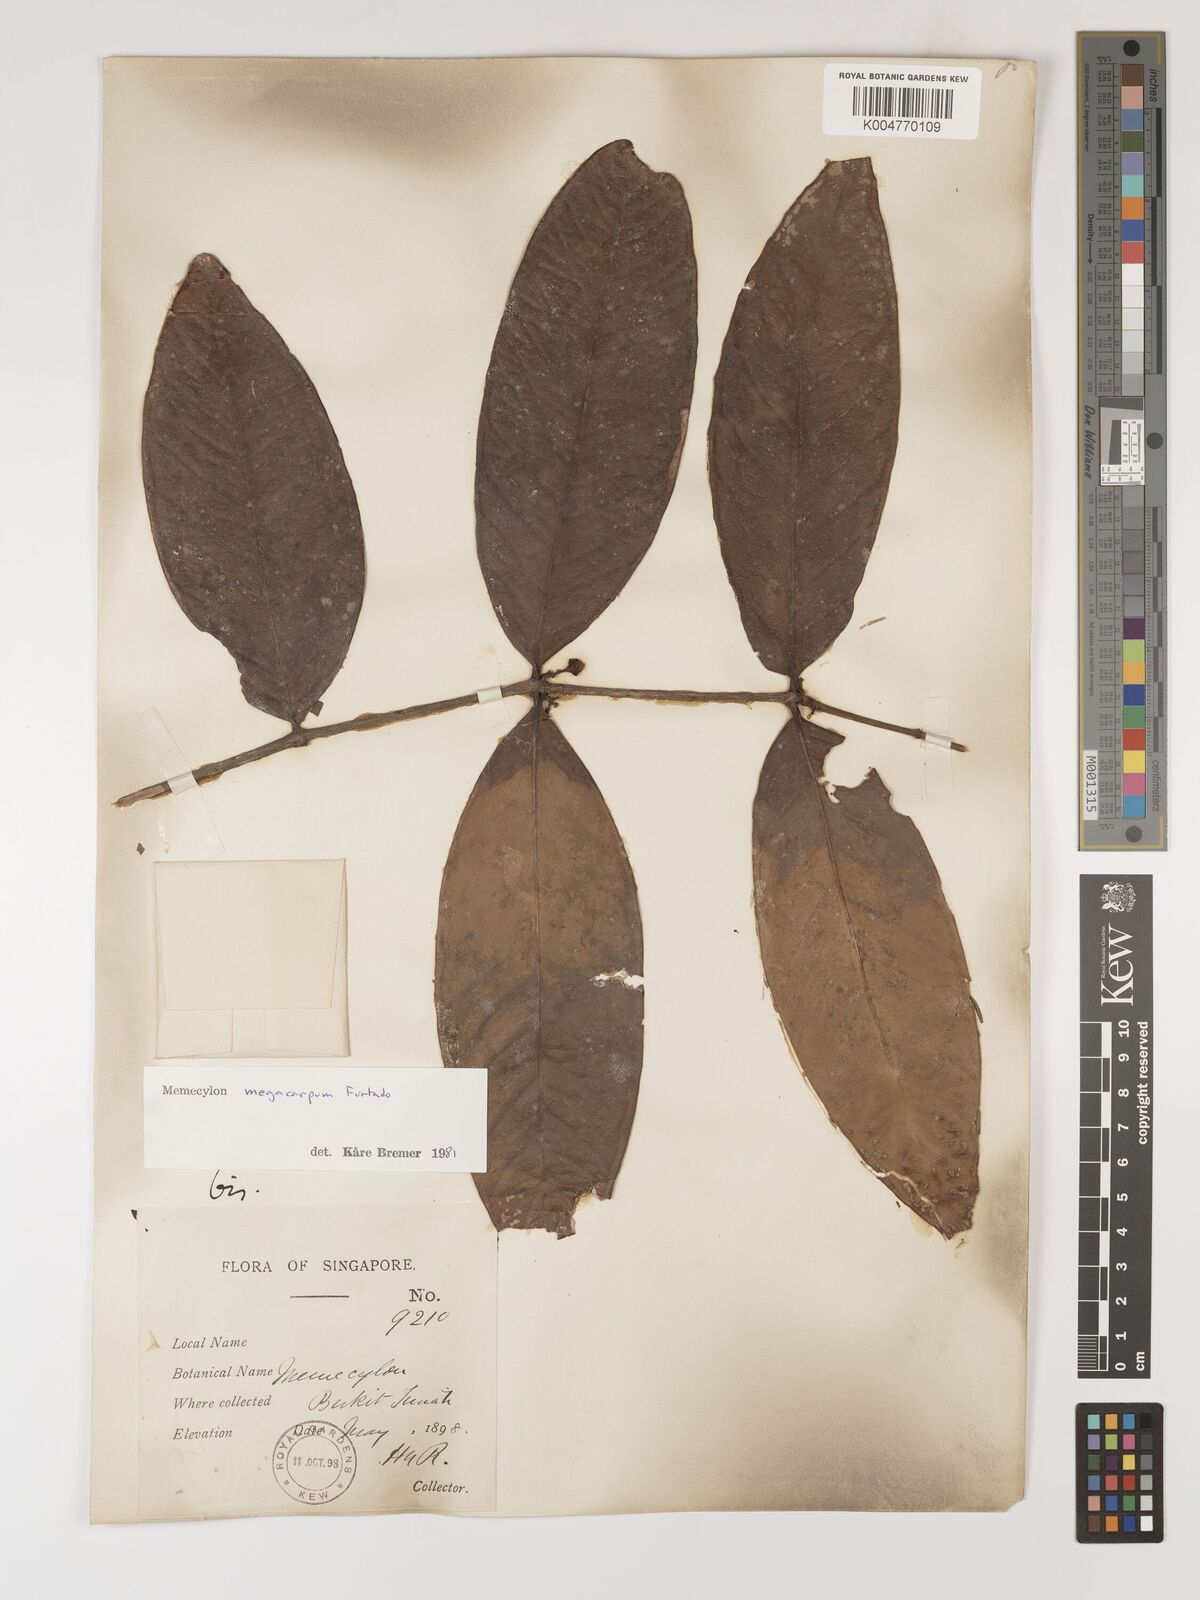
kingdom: Plantae
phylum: Tracheophyta
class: Magnoliopsida
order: Myrtales
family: Melastomataceae
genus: Memecylon
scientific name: Memecylon megacarpum
